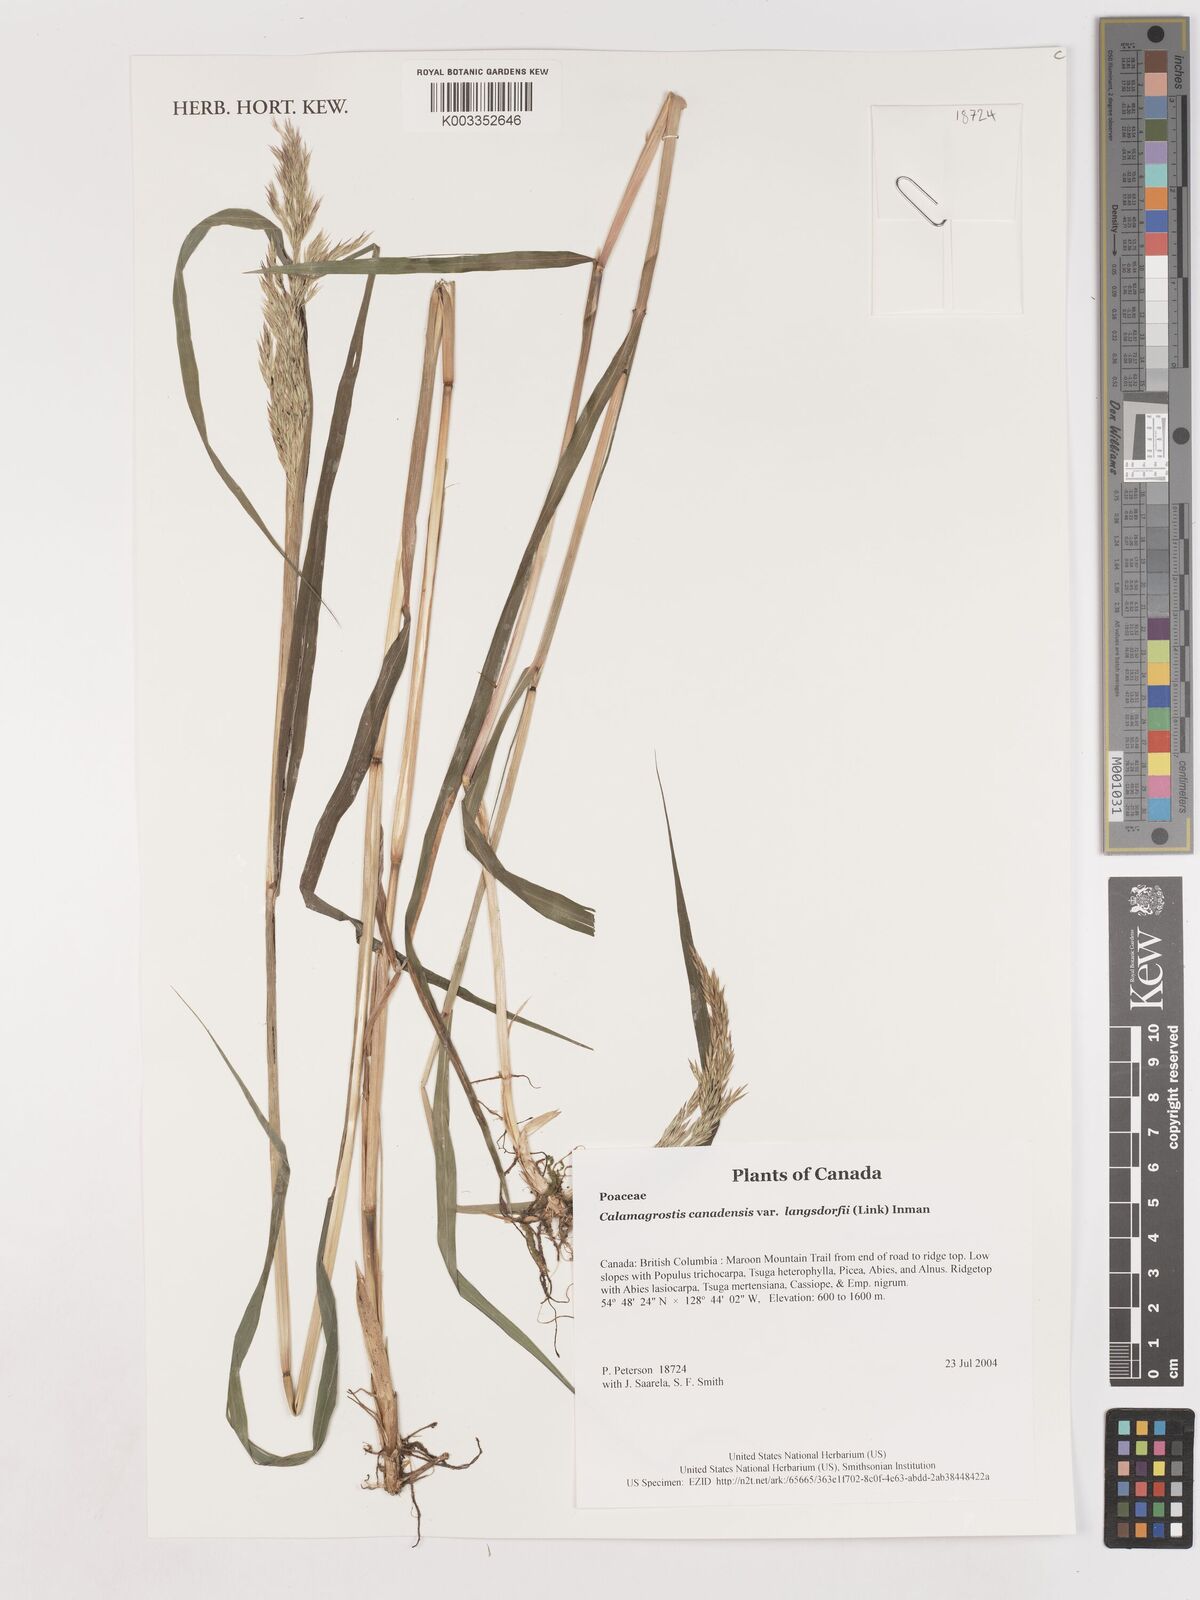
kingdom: Plantae
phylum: Tracheophyta
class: Liliopsida
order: Poales
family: Poaceae
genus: Calamagrostis
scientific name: Calamagrostis canadensis
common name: Canada bluejoint
